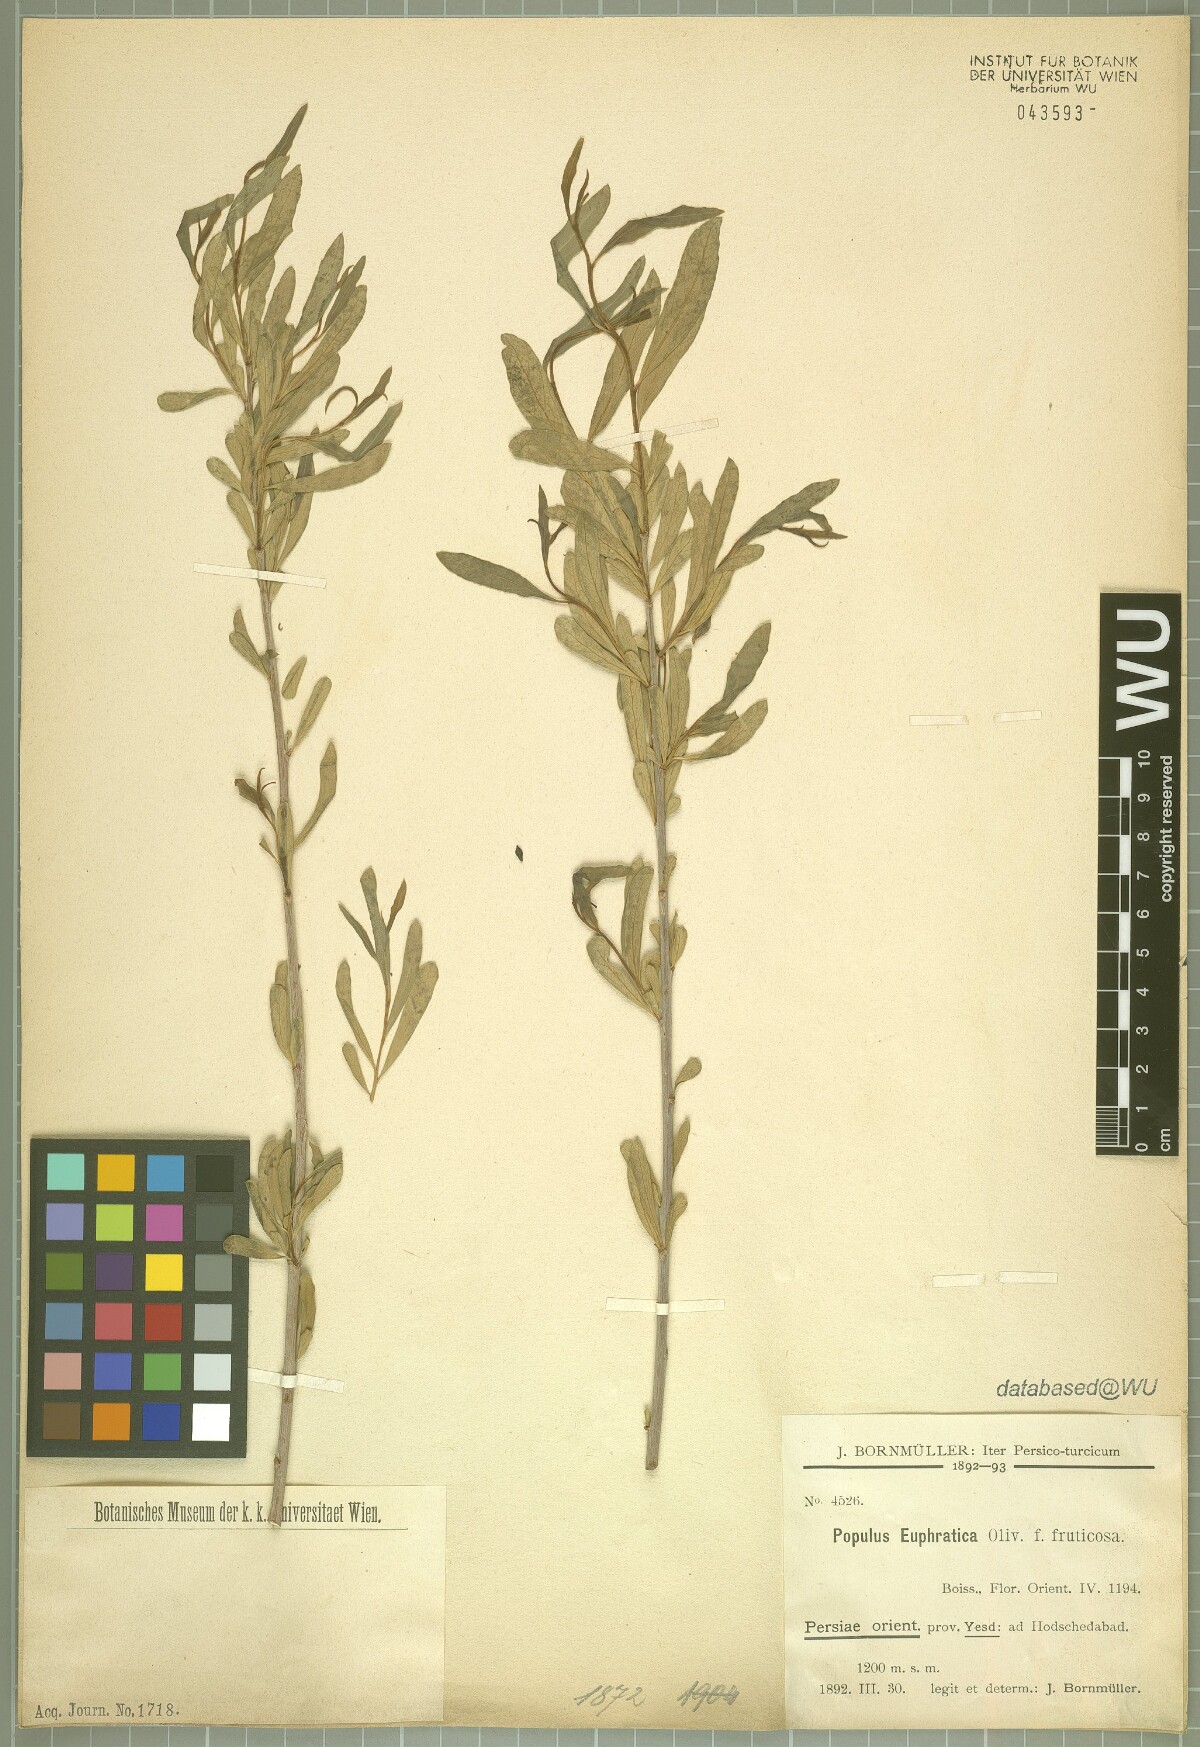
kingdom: Plantae
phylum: Tracheophyta
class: Magnoliopsida
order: Malpighiales
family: Salicaceae
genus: Populus
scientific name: Populus euphratica
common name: Euphrates poplar
